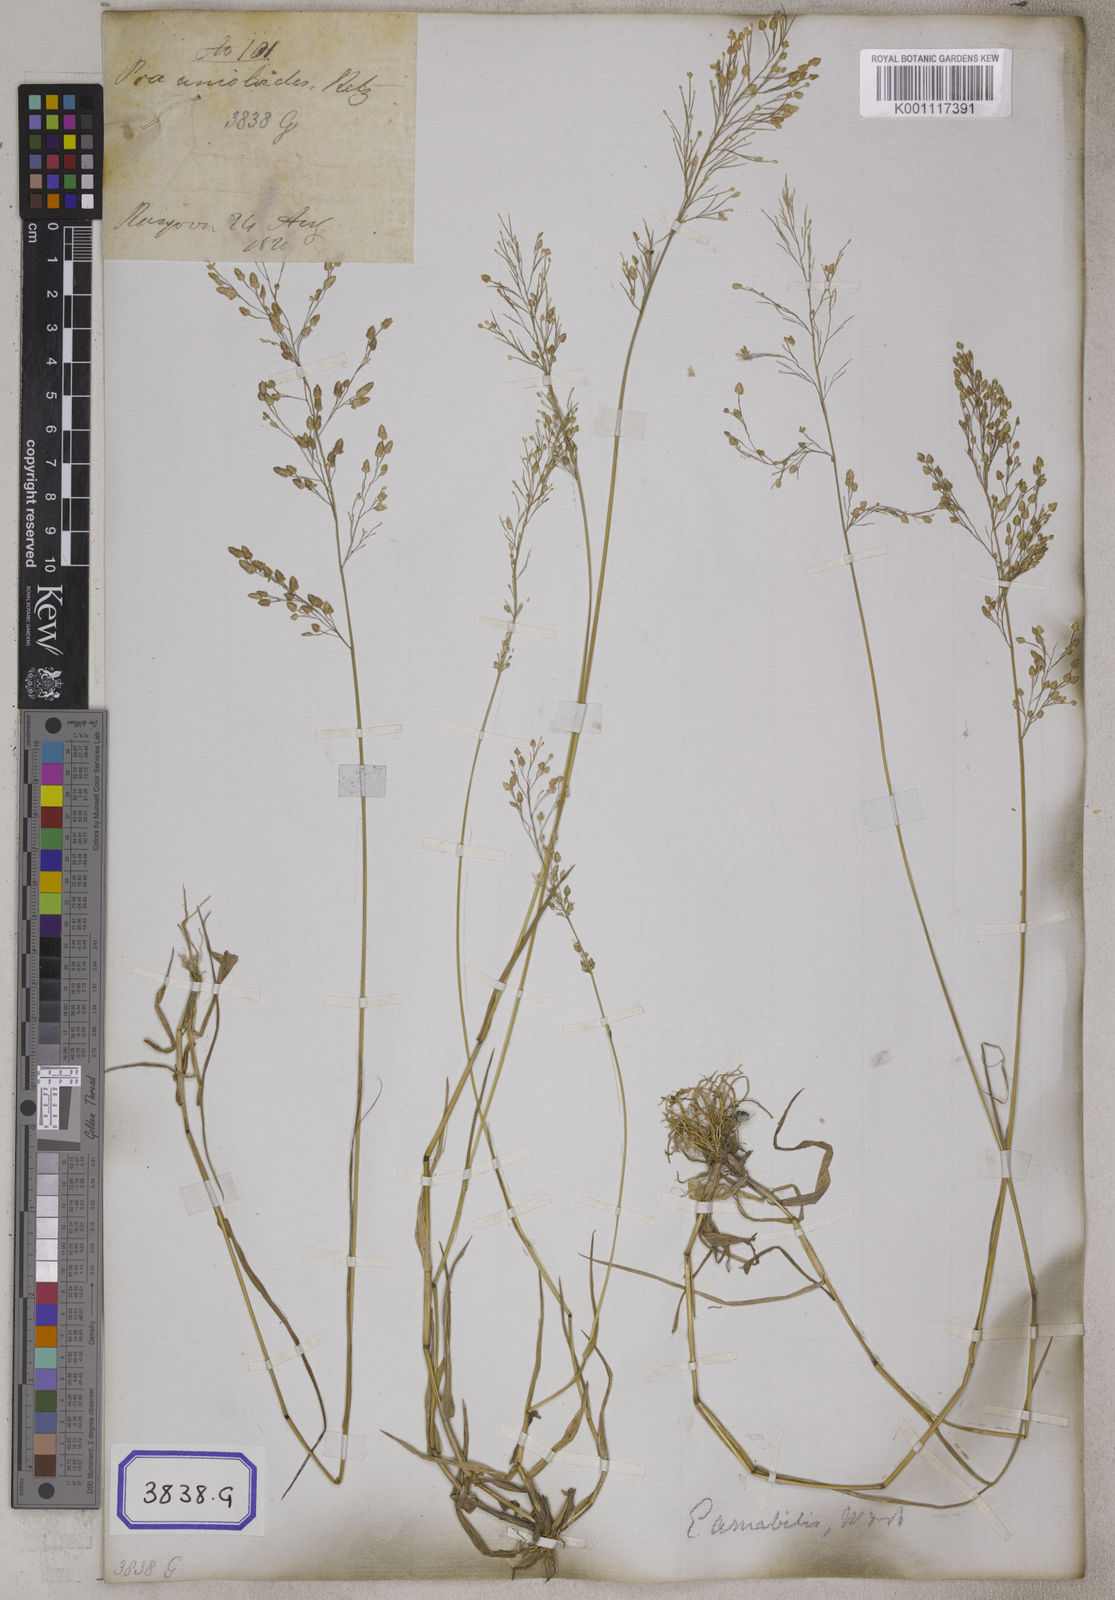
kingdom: Plantae
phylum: Tracheophyta
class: Liliopsida
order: Poales
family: Poaceae
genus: Eragrostis
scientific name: Eragrostis
